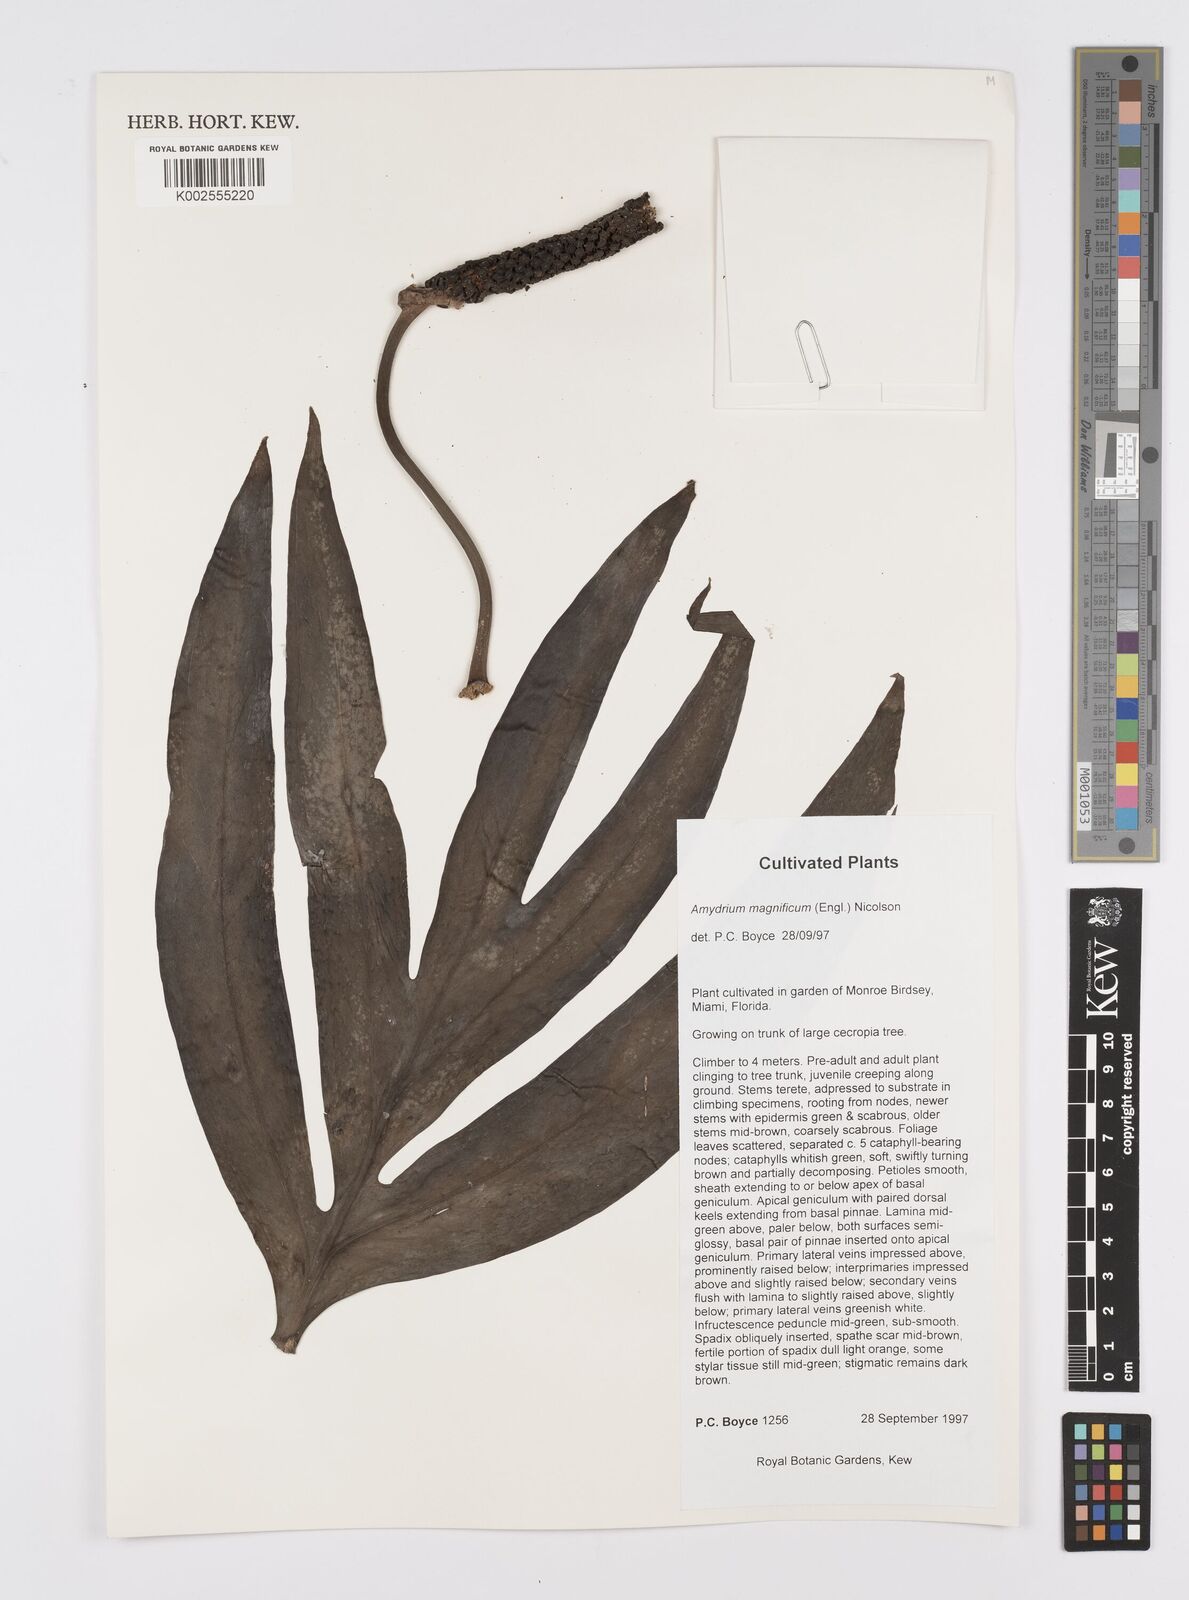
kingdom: Plantae
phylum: Tracheophyta
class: Liliopsida
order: Alismatales
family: Araceae
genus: Amydrium
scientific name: Amydrium zippelianum
